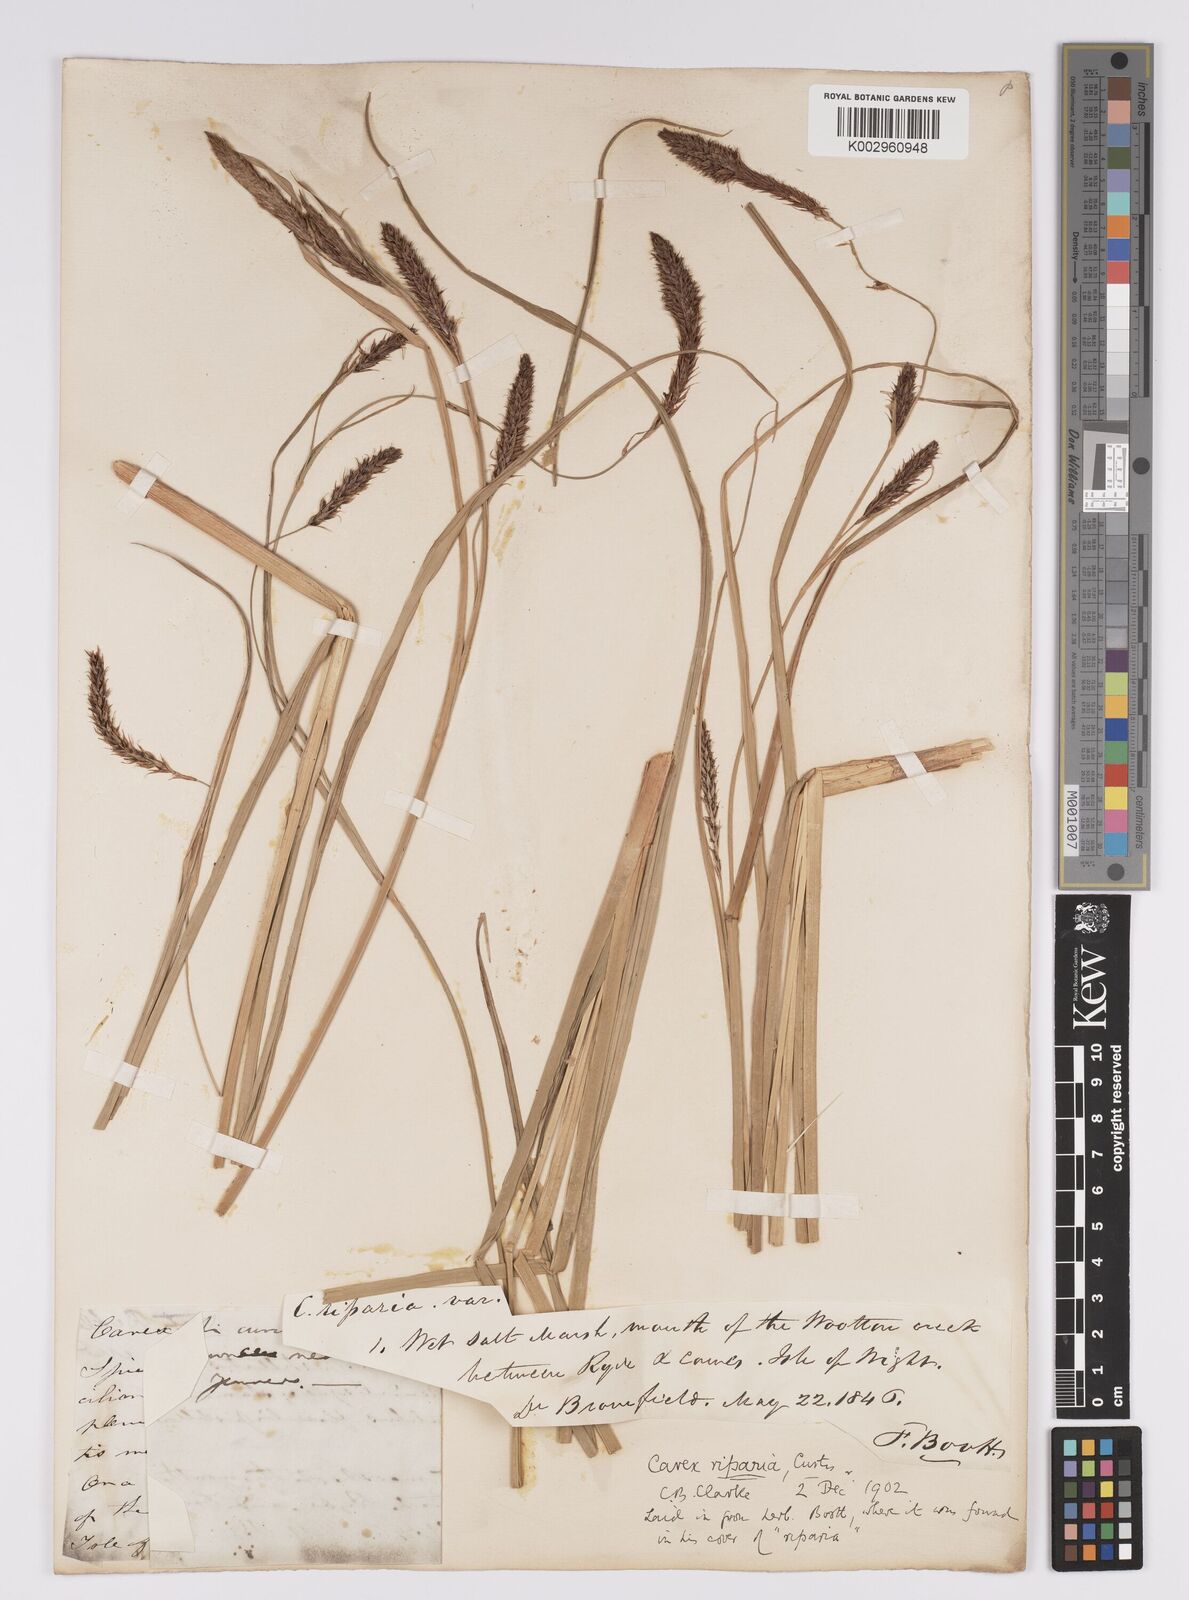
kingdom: Plantae
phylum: Tracheophyta
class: Liliopsida
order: Poales
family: Cyperaceae
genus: Carex
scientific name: Carex riparia
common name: Greater pond-sedge
